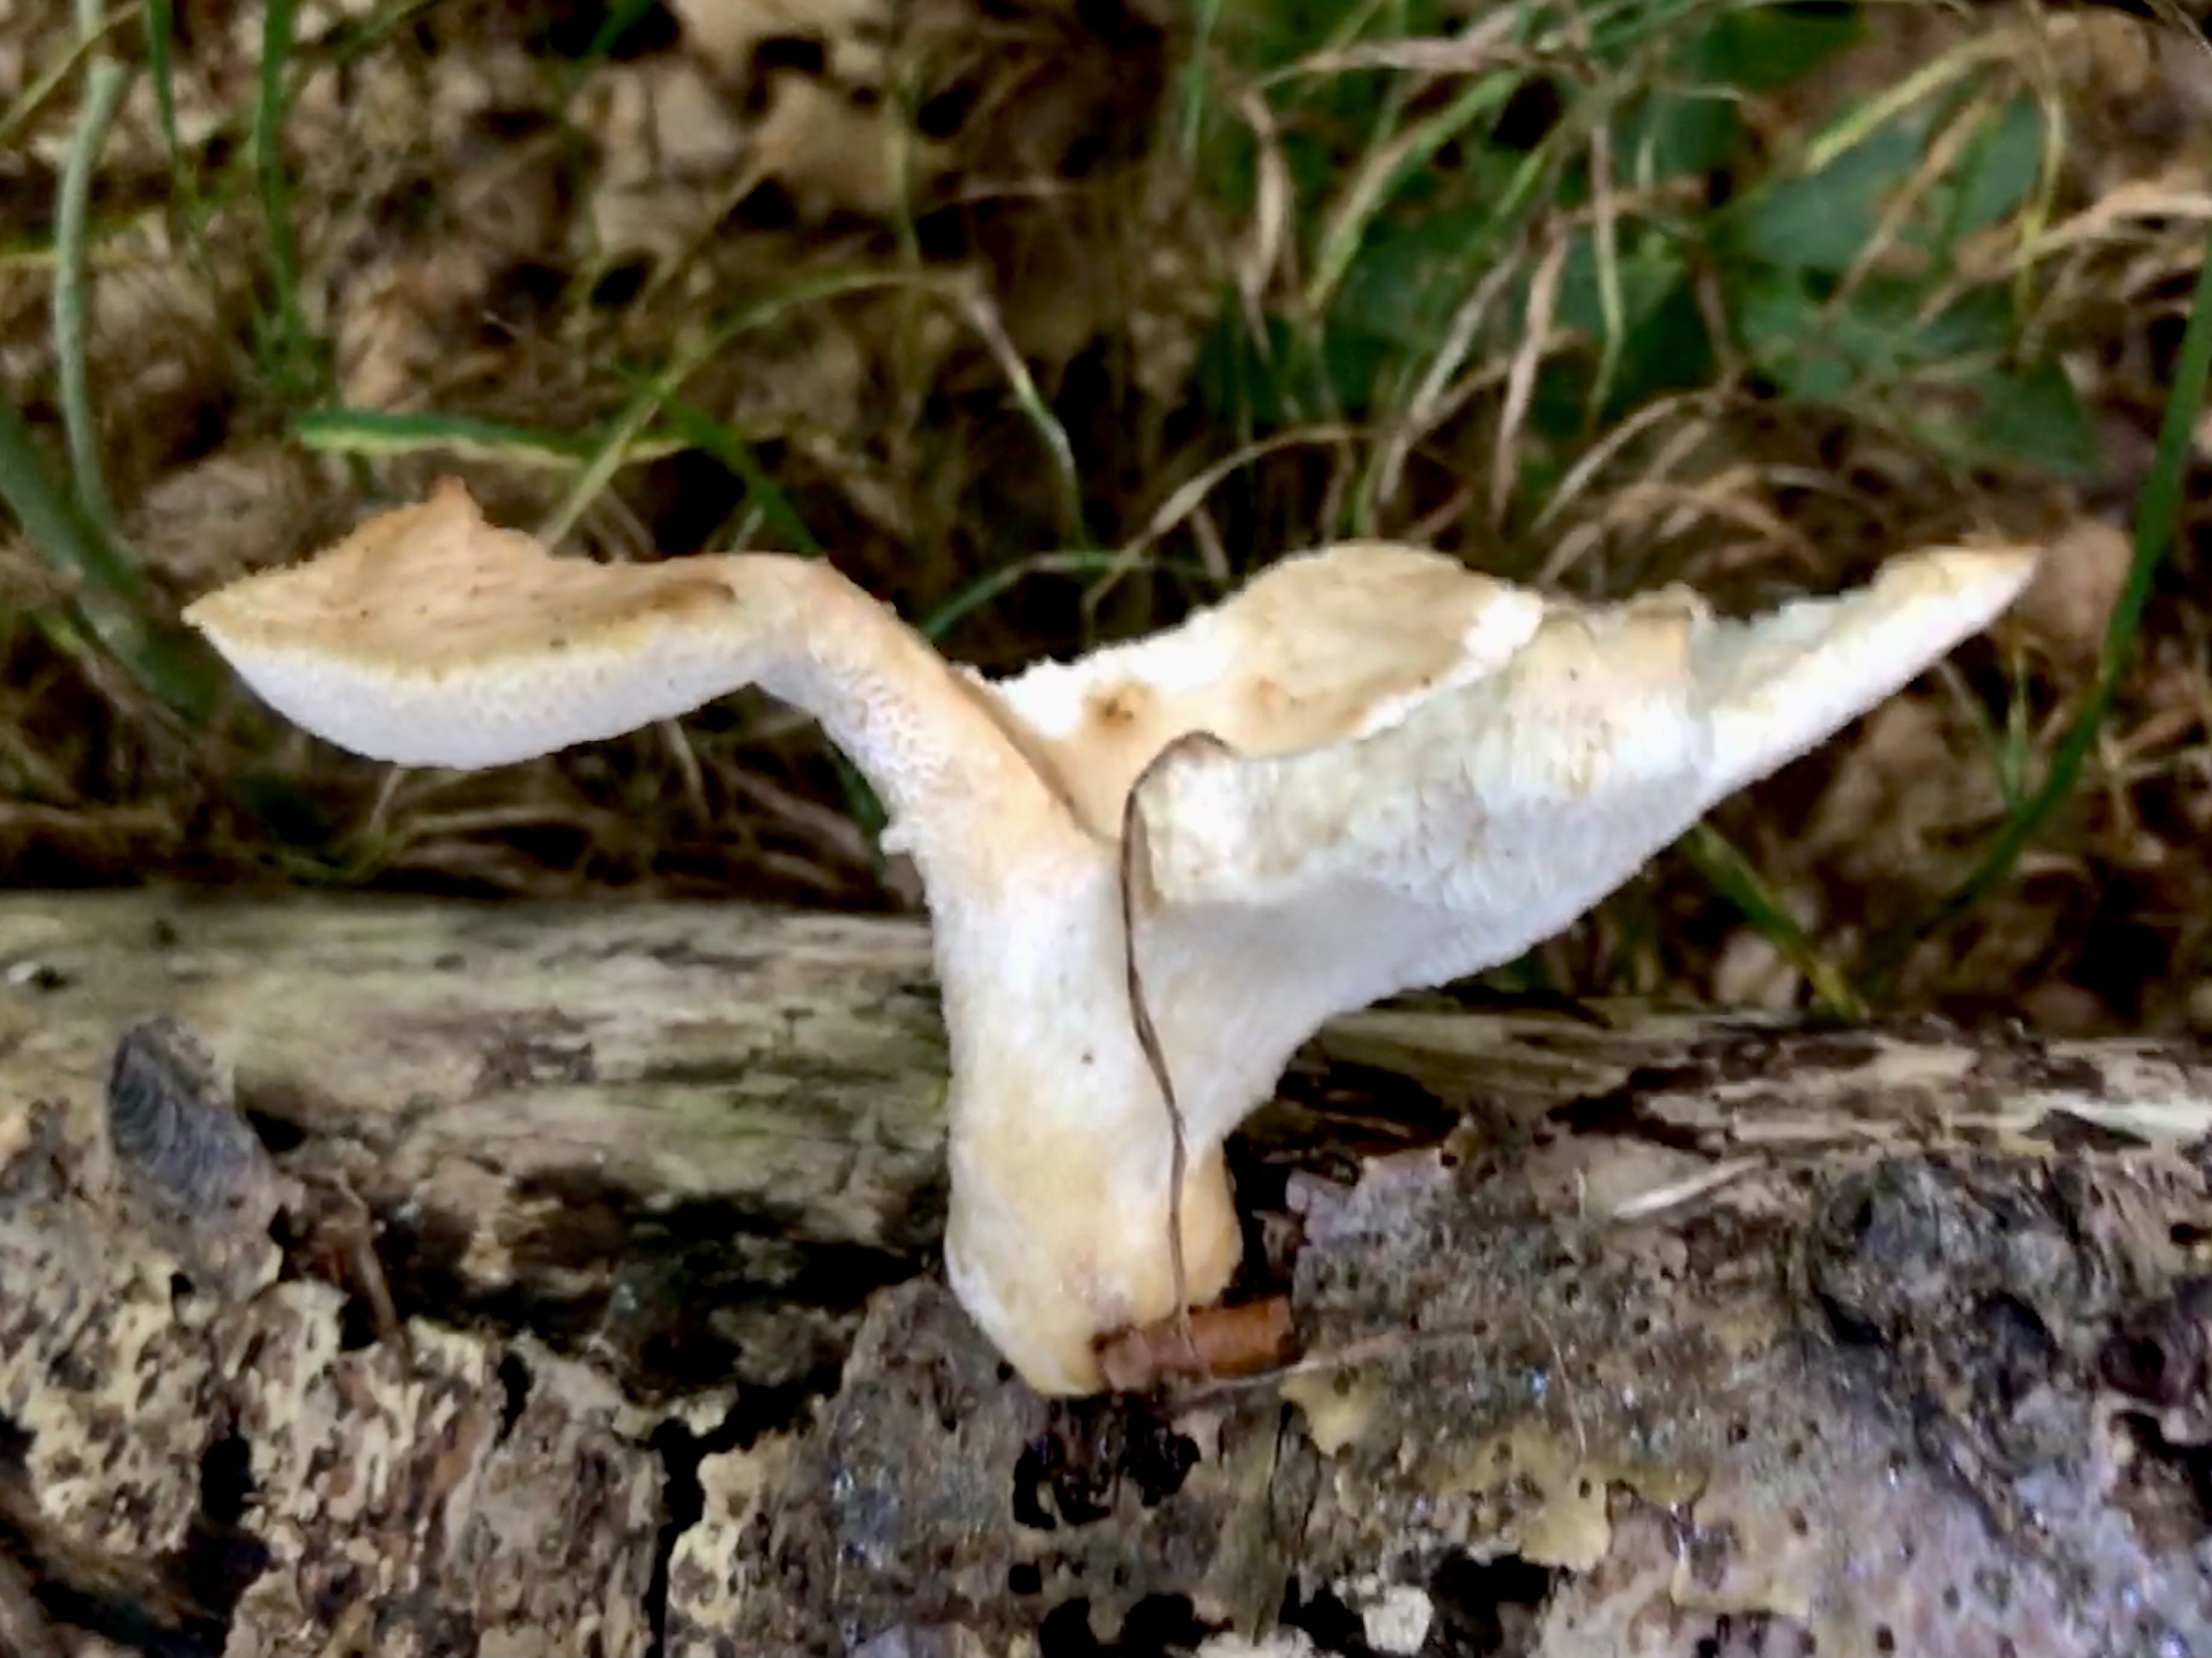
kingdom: Fungi
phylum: Basidiomycota
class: Agaricomycetes
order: Polyporales
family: Polyporaceae
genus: Polyporus
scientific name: Polyporus tuberaster
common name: knoldet stilkporesvamp
